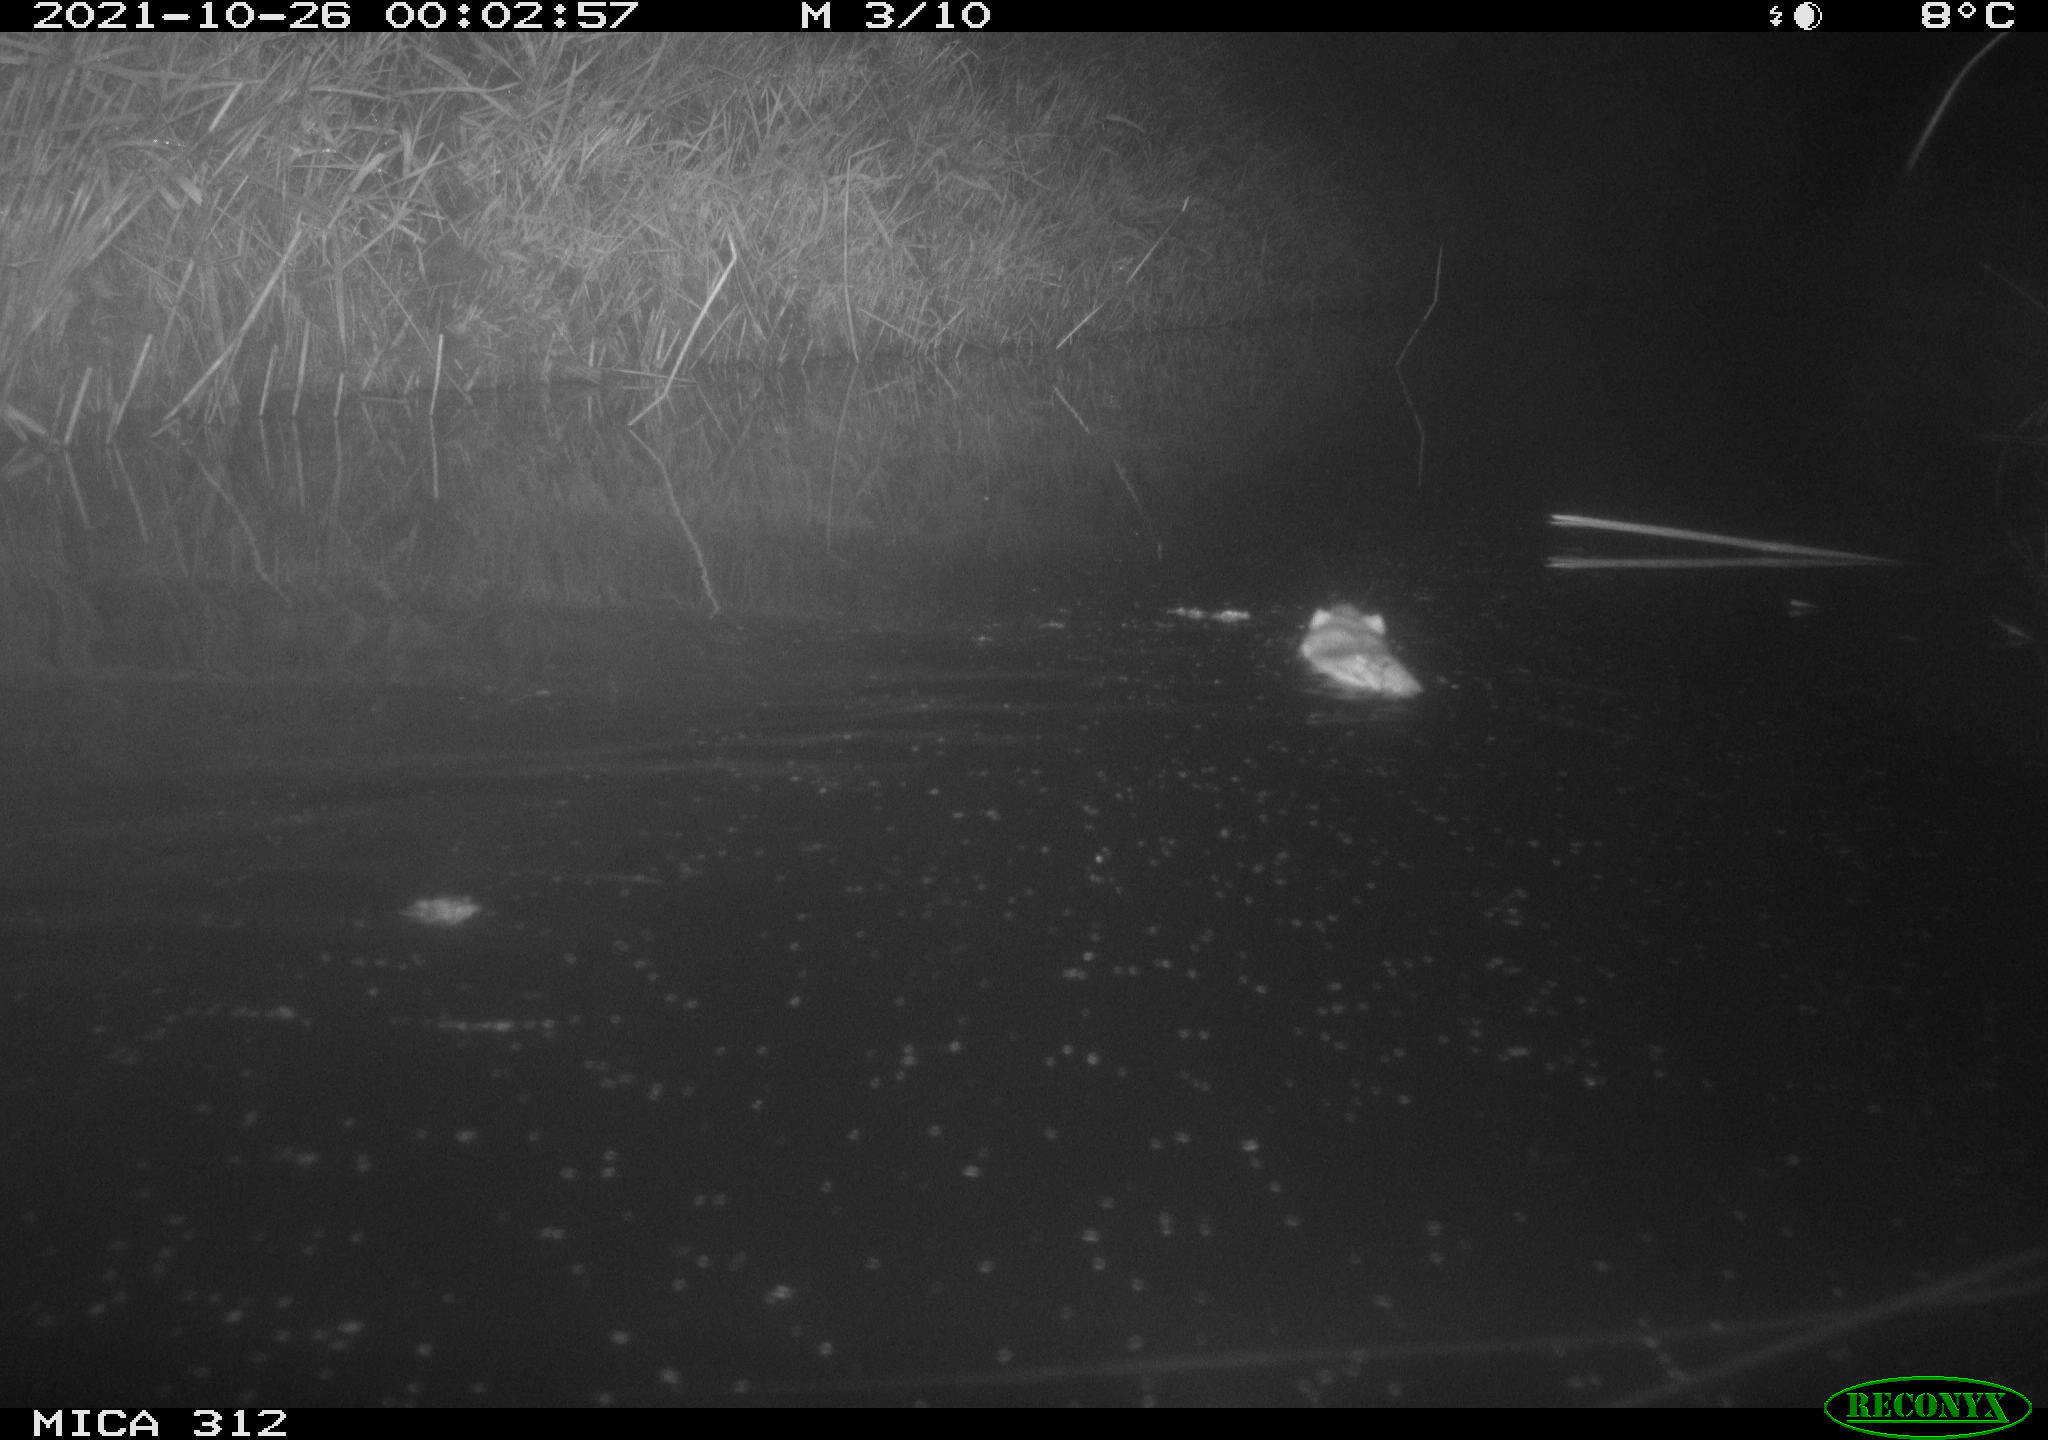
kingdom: Animalia
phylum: Chordata
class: Mammalia
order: Rodentia
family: Muridae
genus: Rattus
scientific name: Rattus norvegicus
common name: Brown rat
